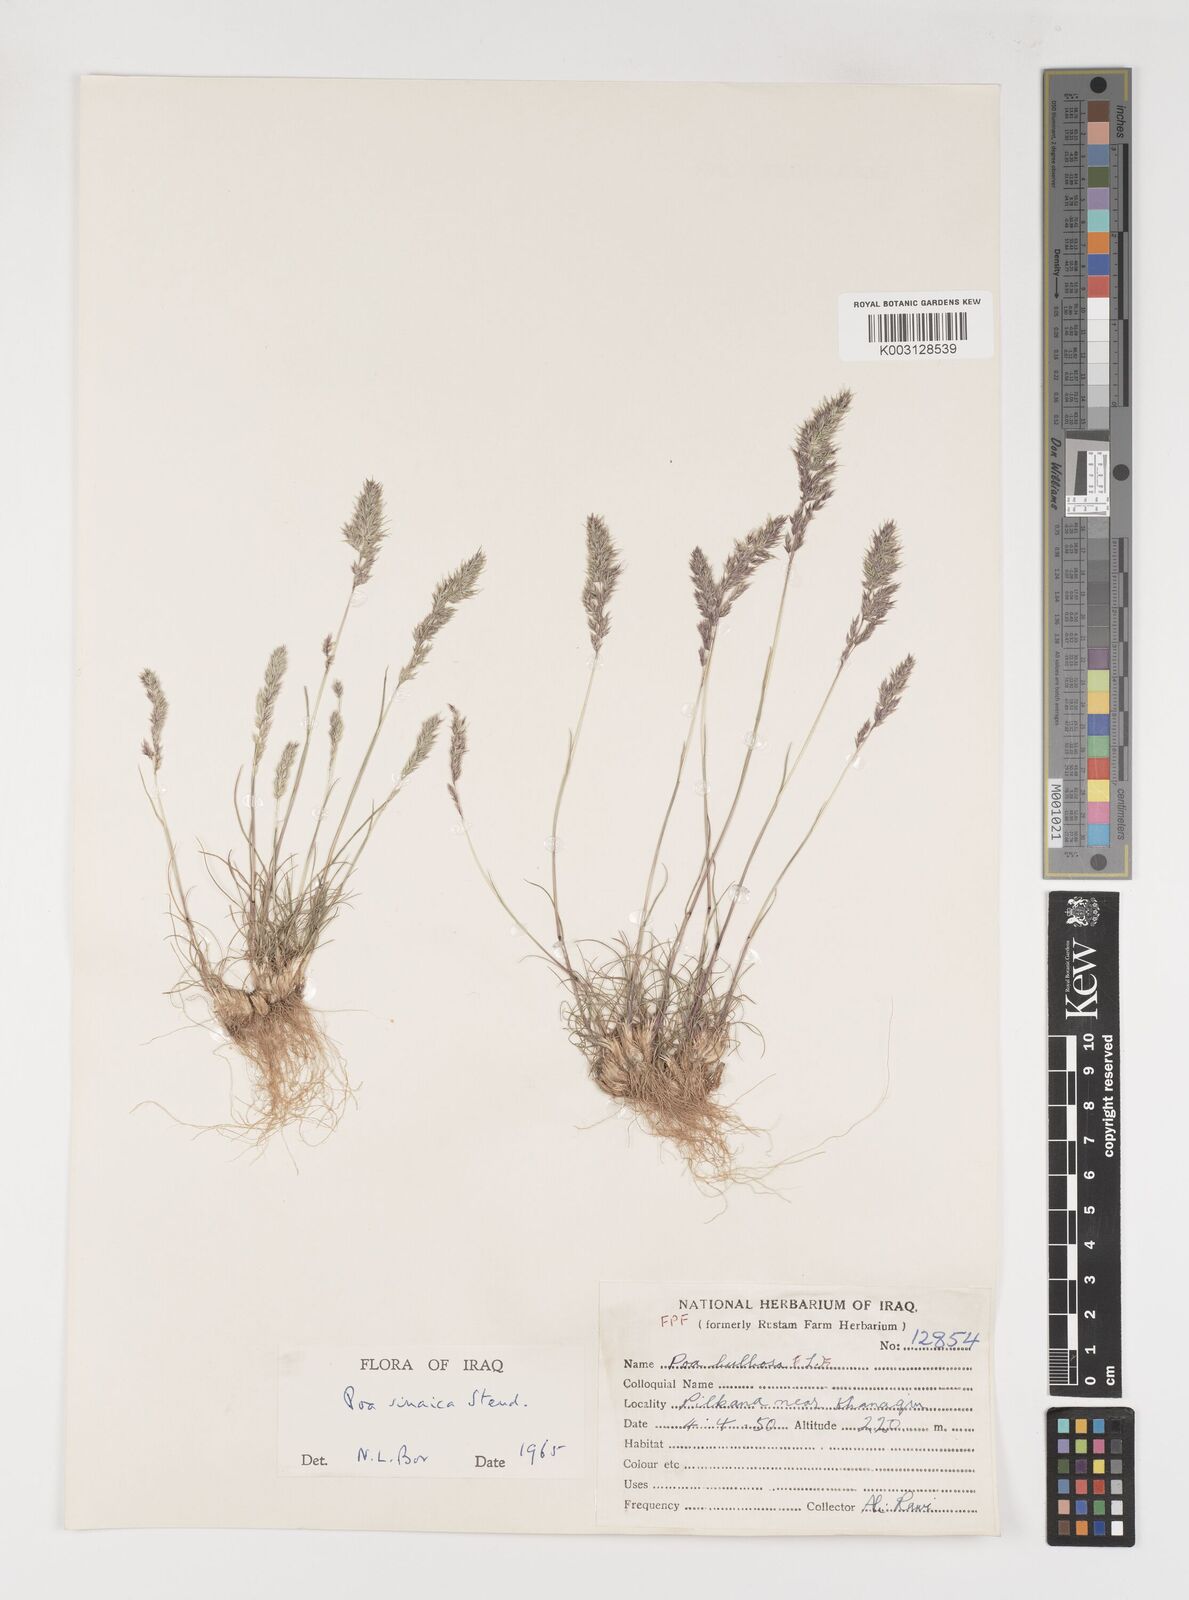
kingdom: Plantae
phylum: Tracheophyta
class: Liliopsida
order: Poales
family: Poaceae
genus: Poa
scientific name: Poa sinaica
